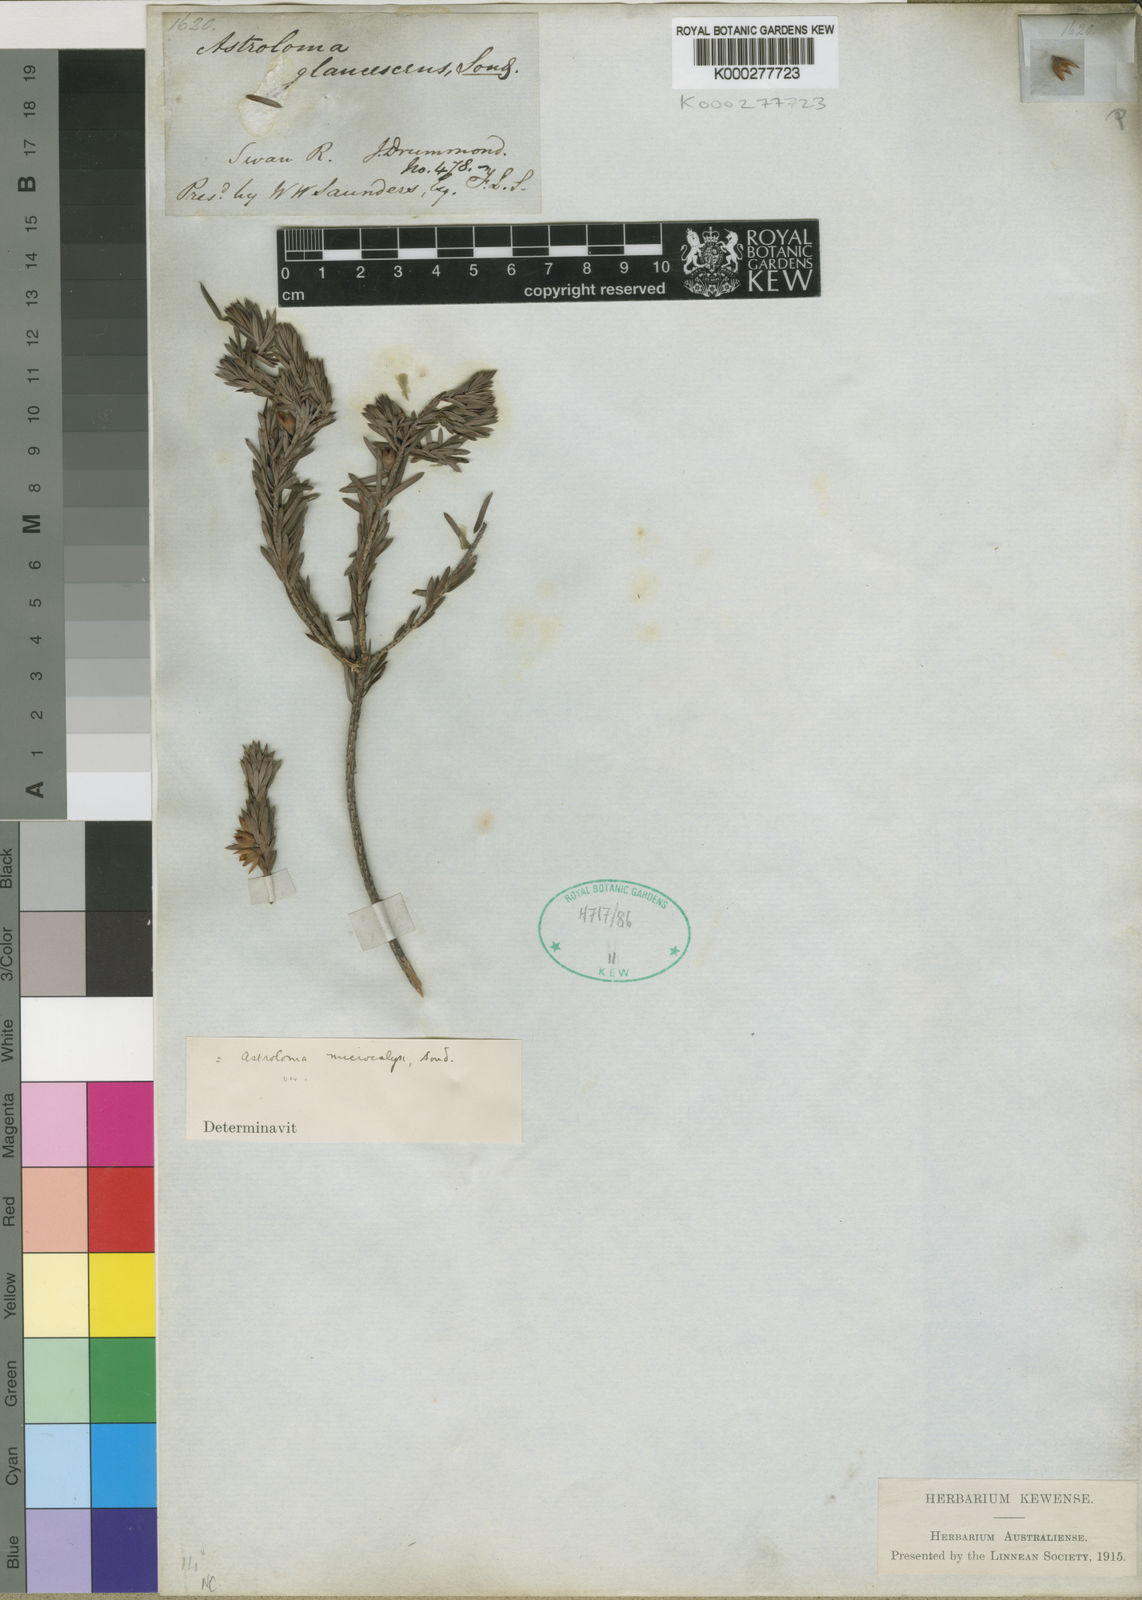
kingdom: Plantae
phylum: Tracheophyta
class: Magnoliopsida
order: Ericales
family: Ericaceae
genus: Styphelia
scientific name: Styphelia tortifolia
